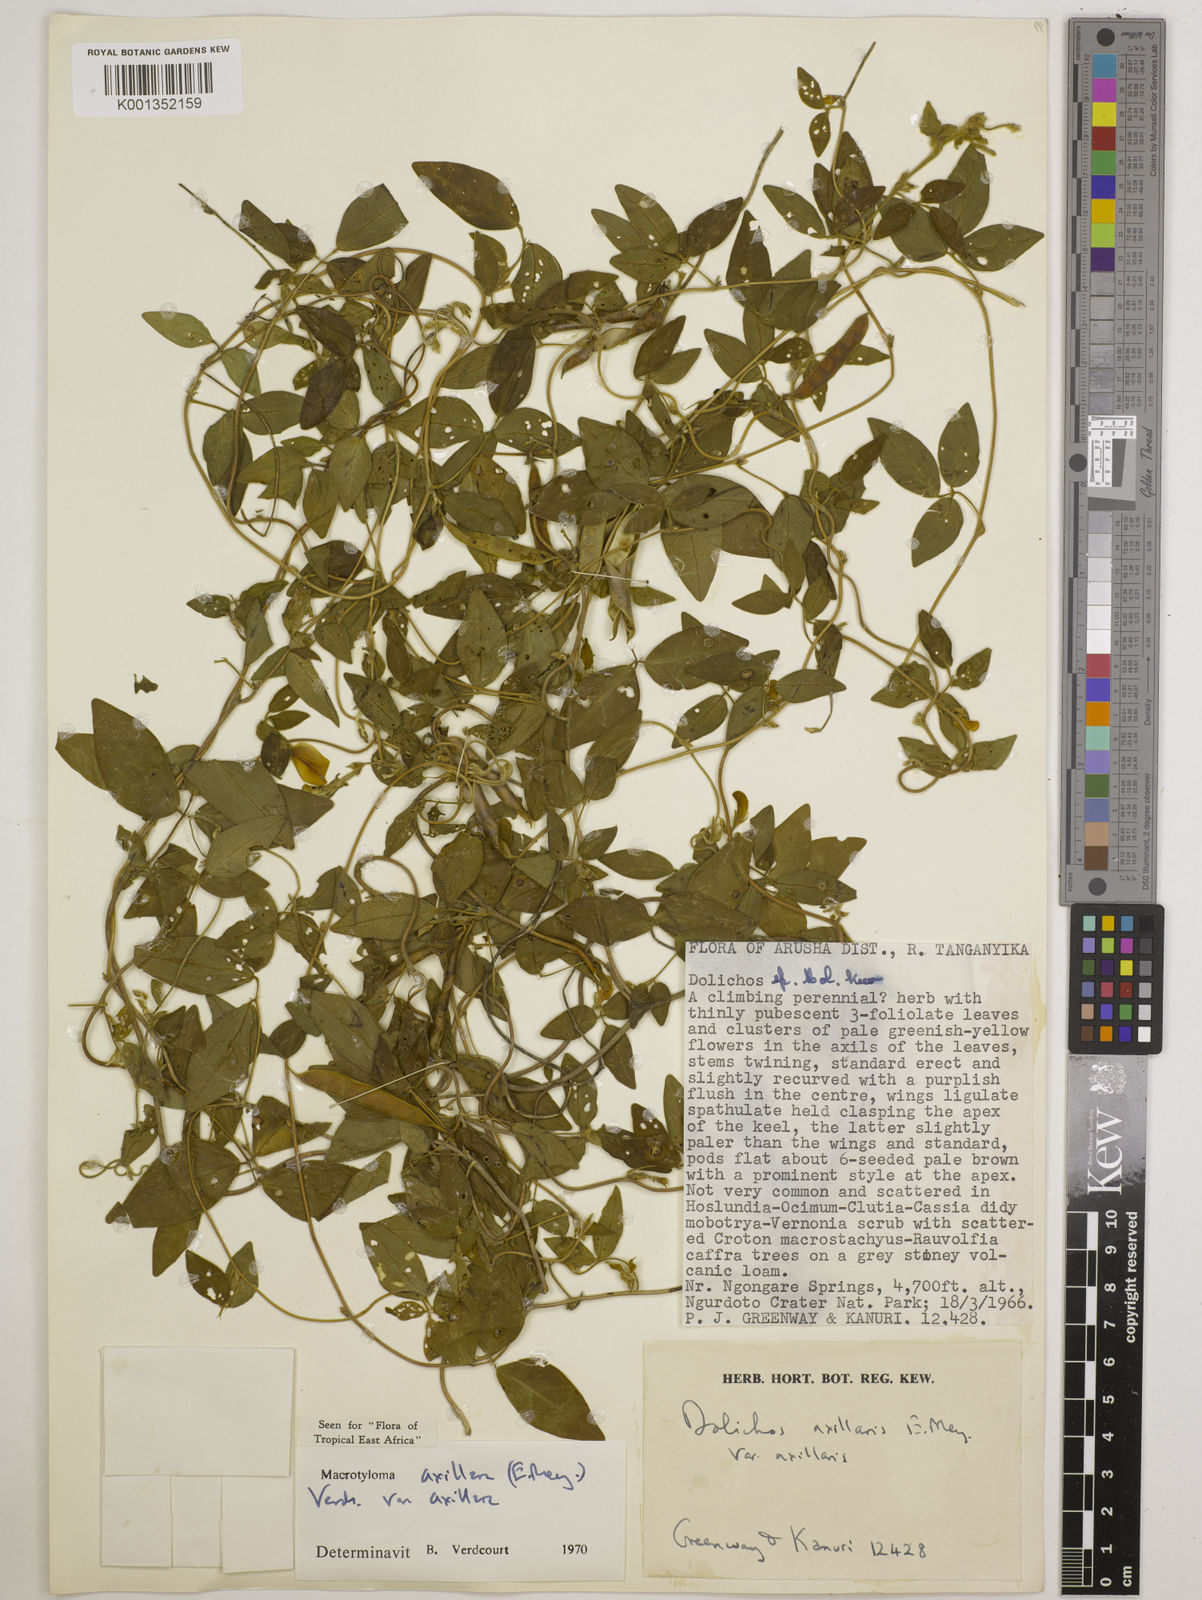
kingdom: Plantae
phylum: Tracheophyta
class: Magnoliopsida
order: Fabales
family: Fabaceae
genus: Macrotyloma
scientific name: Macrotyloma axillare
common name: Perennial horsegram
